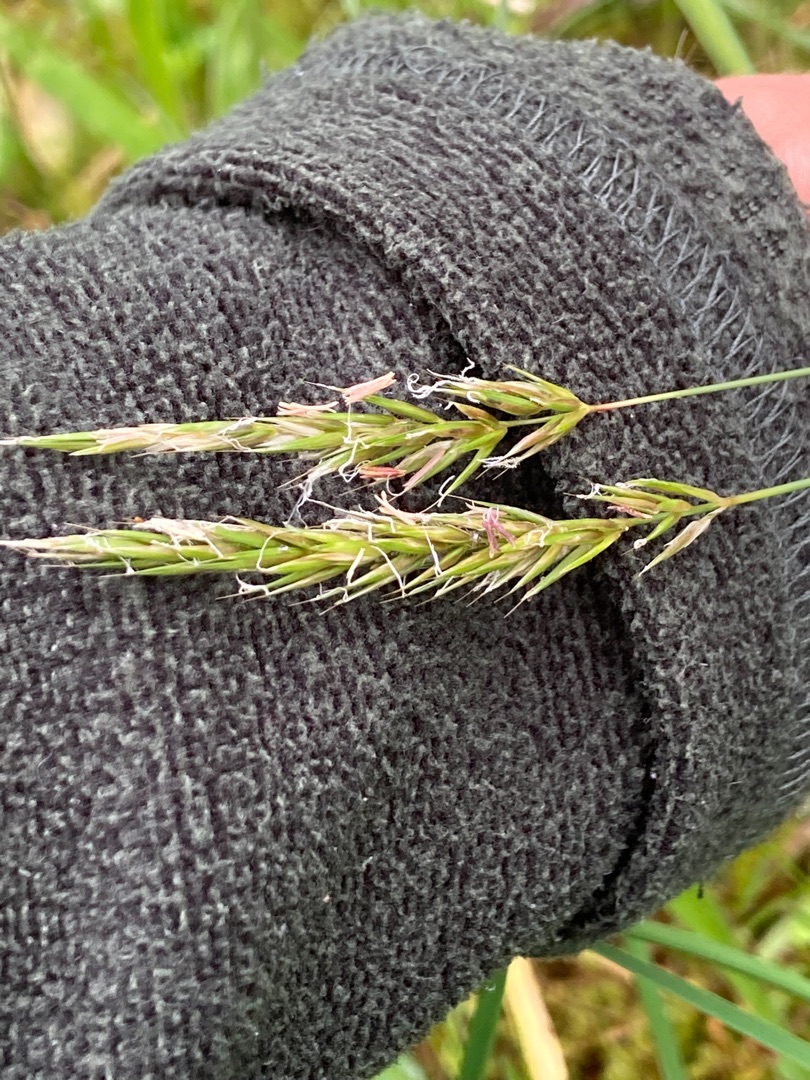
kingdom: Plantae
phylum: Tracheophyta
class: Liliopsida
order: Poales
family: Poaceae
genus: Anthoxanthum
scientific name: Anthoxanthum odoratum
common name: Vellugtende gulaks
